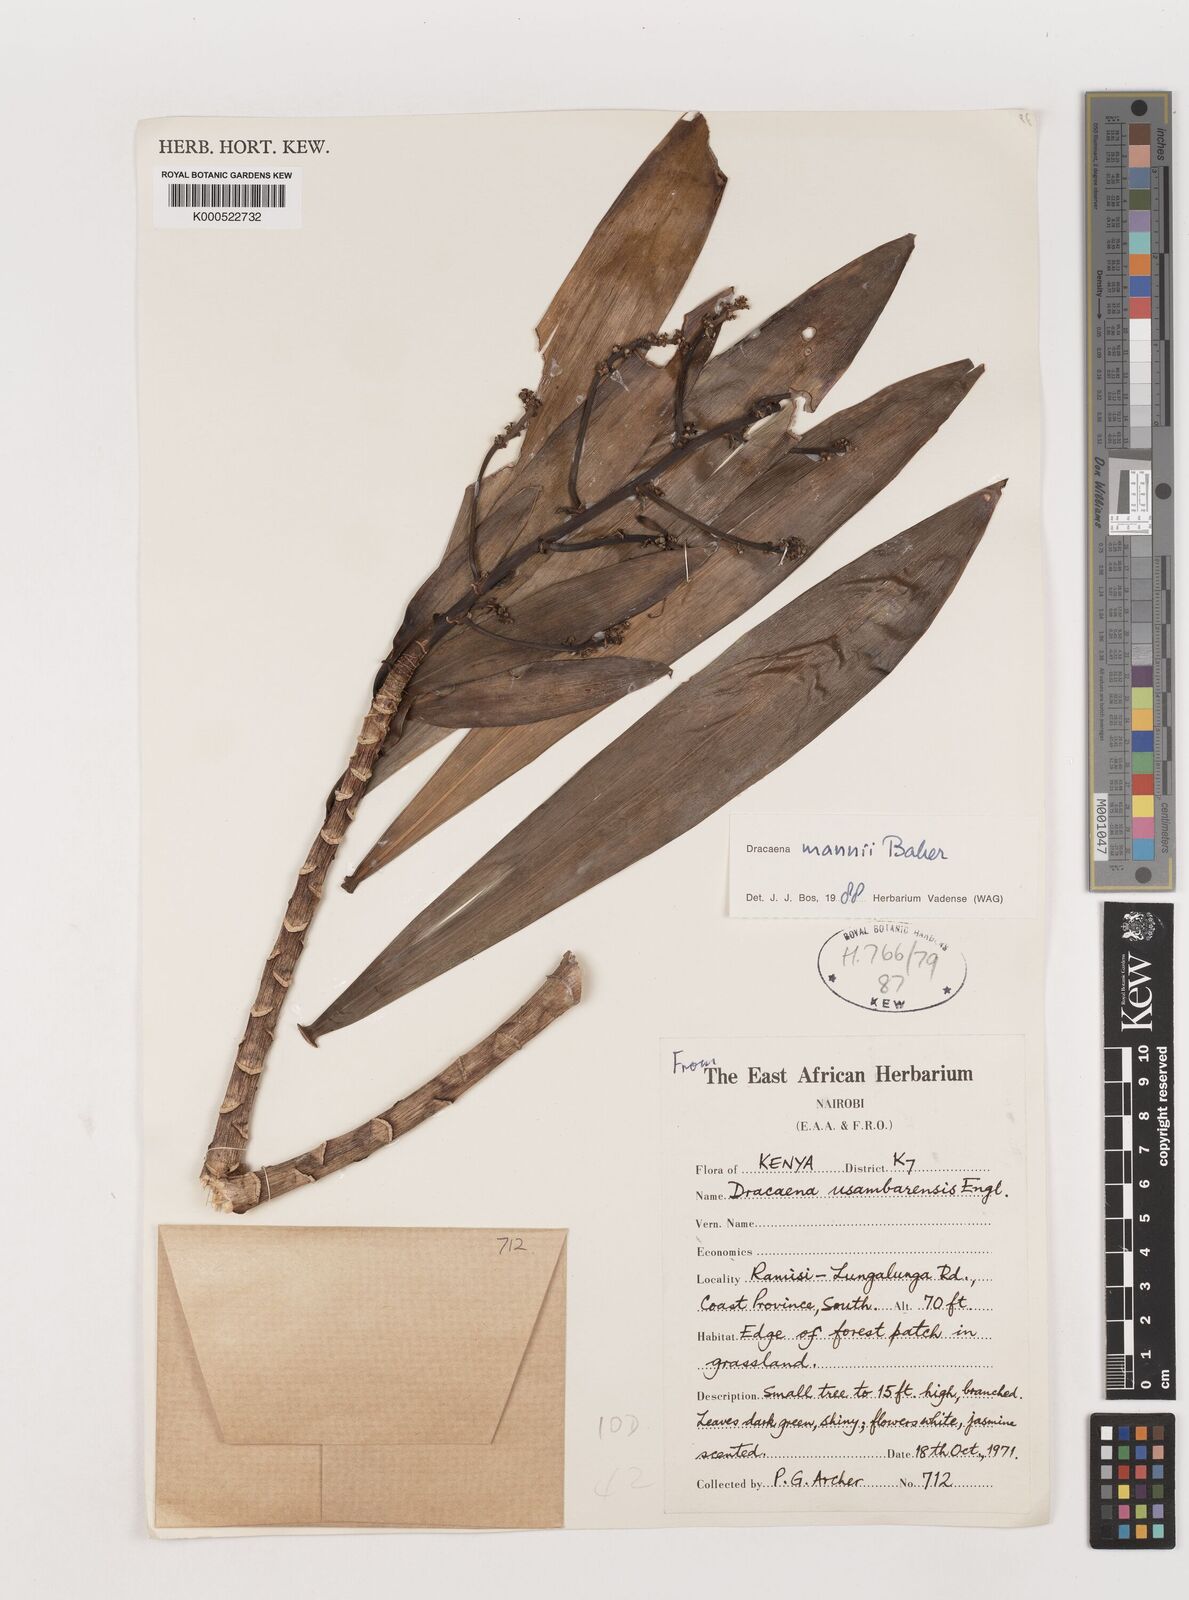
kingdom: Plantae
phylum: Tracheophyta
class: Liliopsida
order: Asparagales
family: Asparagaceae
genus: Dracaena
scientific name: Dracaena mannii
